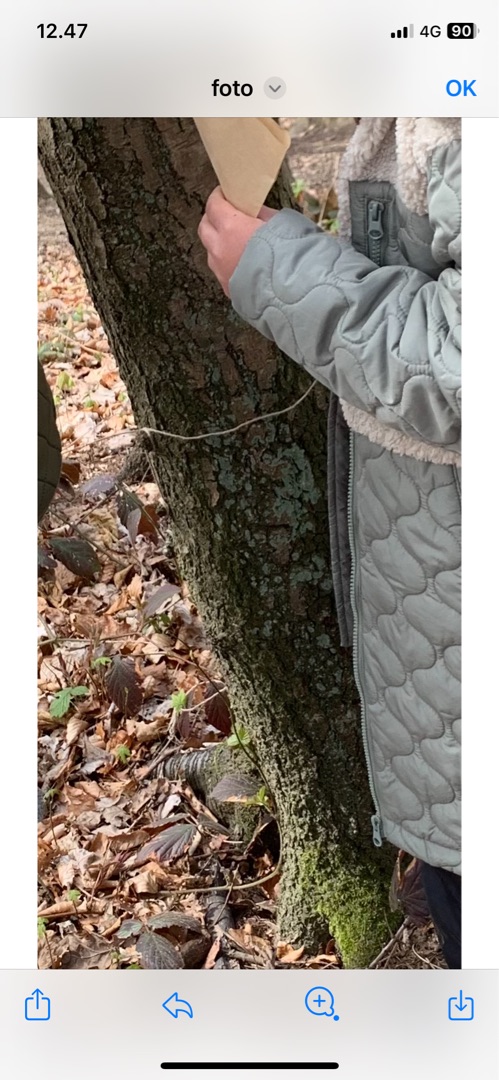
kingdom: Fungi
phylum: Ascomycota
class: Lecanoromycetes
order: Lecanorales
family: Stereocaulaceae
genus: Lepraria
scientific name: Lepraria incana
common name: Almindelig støvlav
